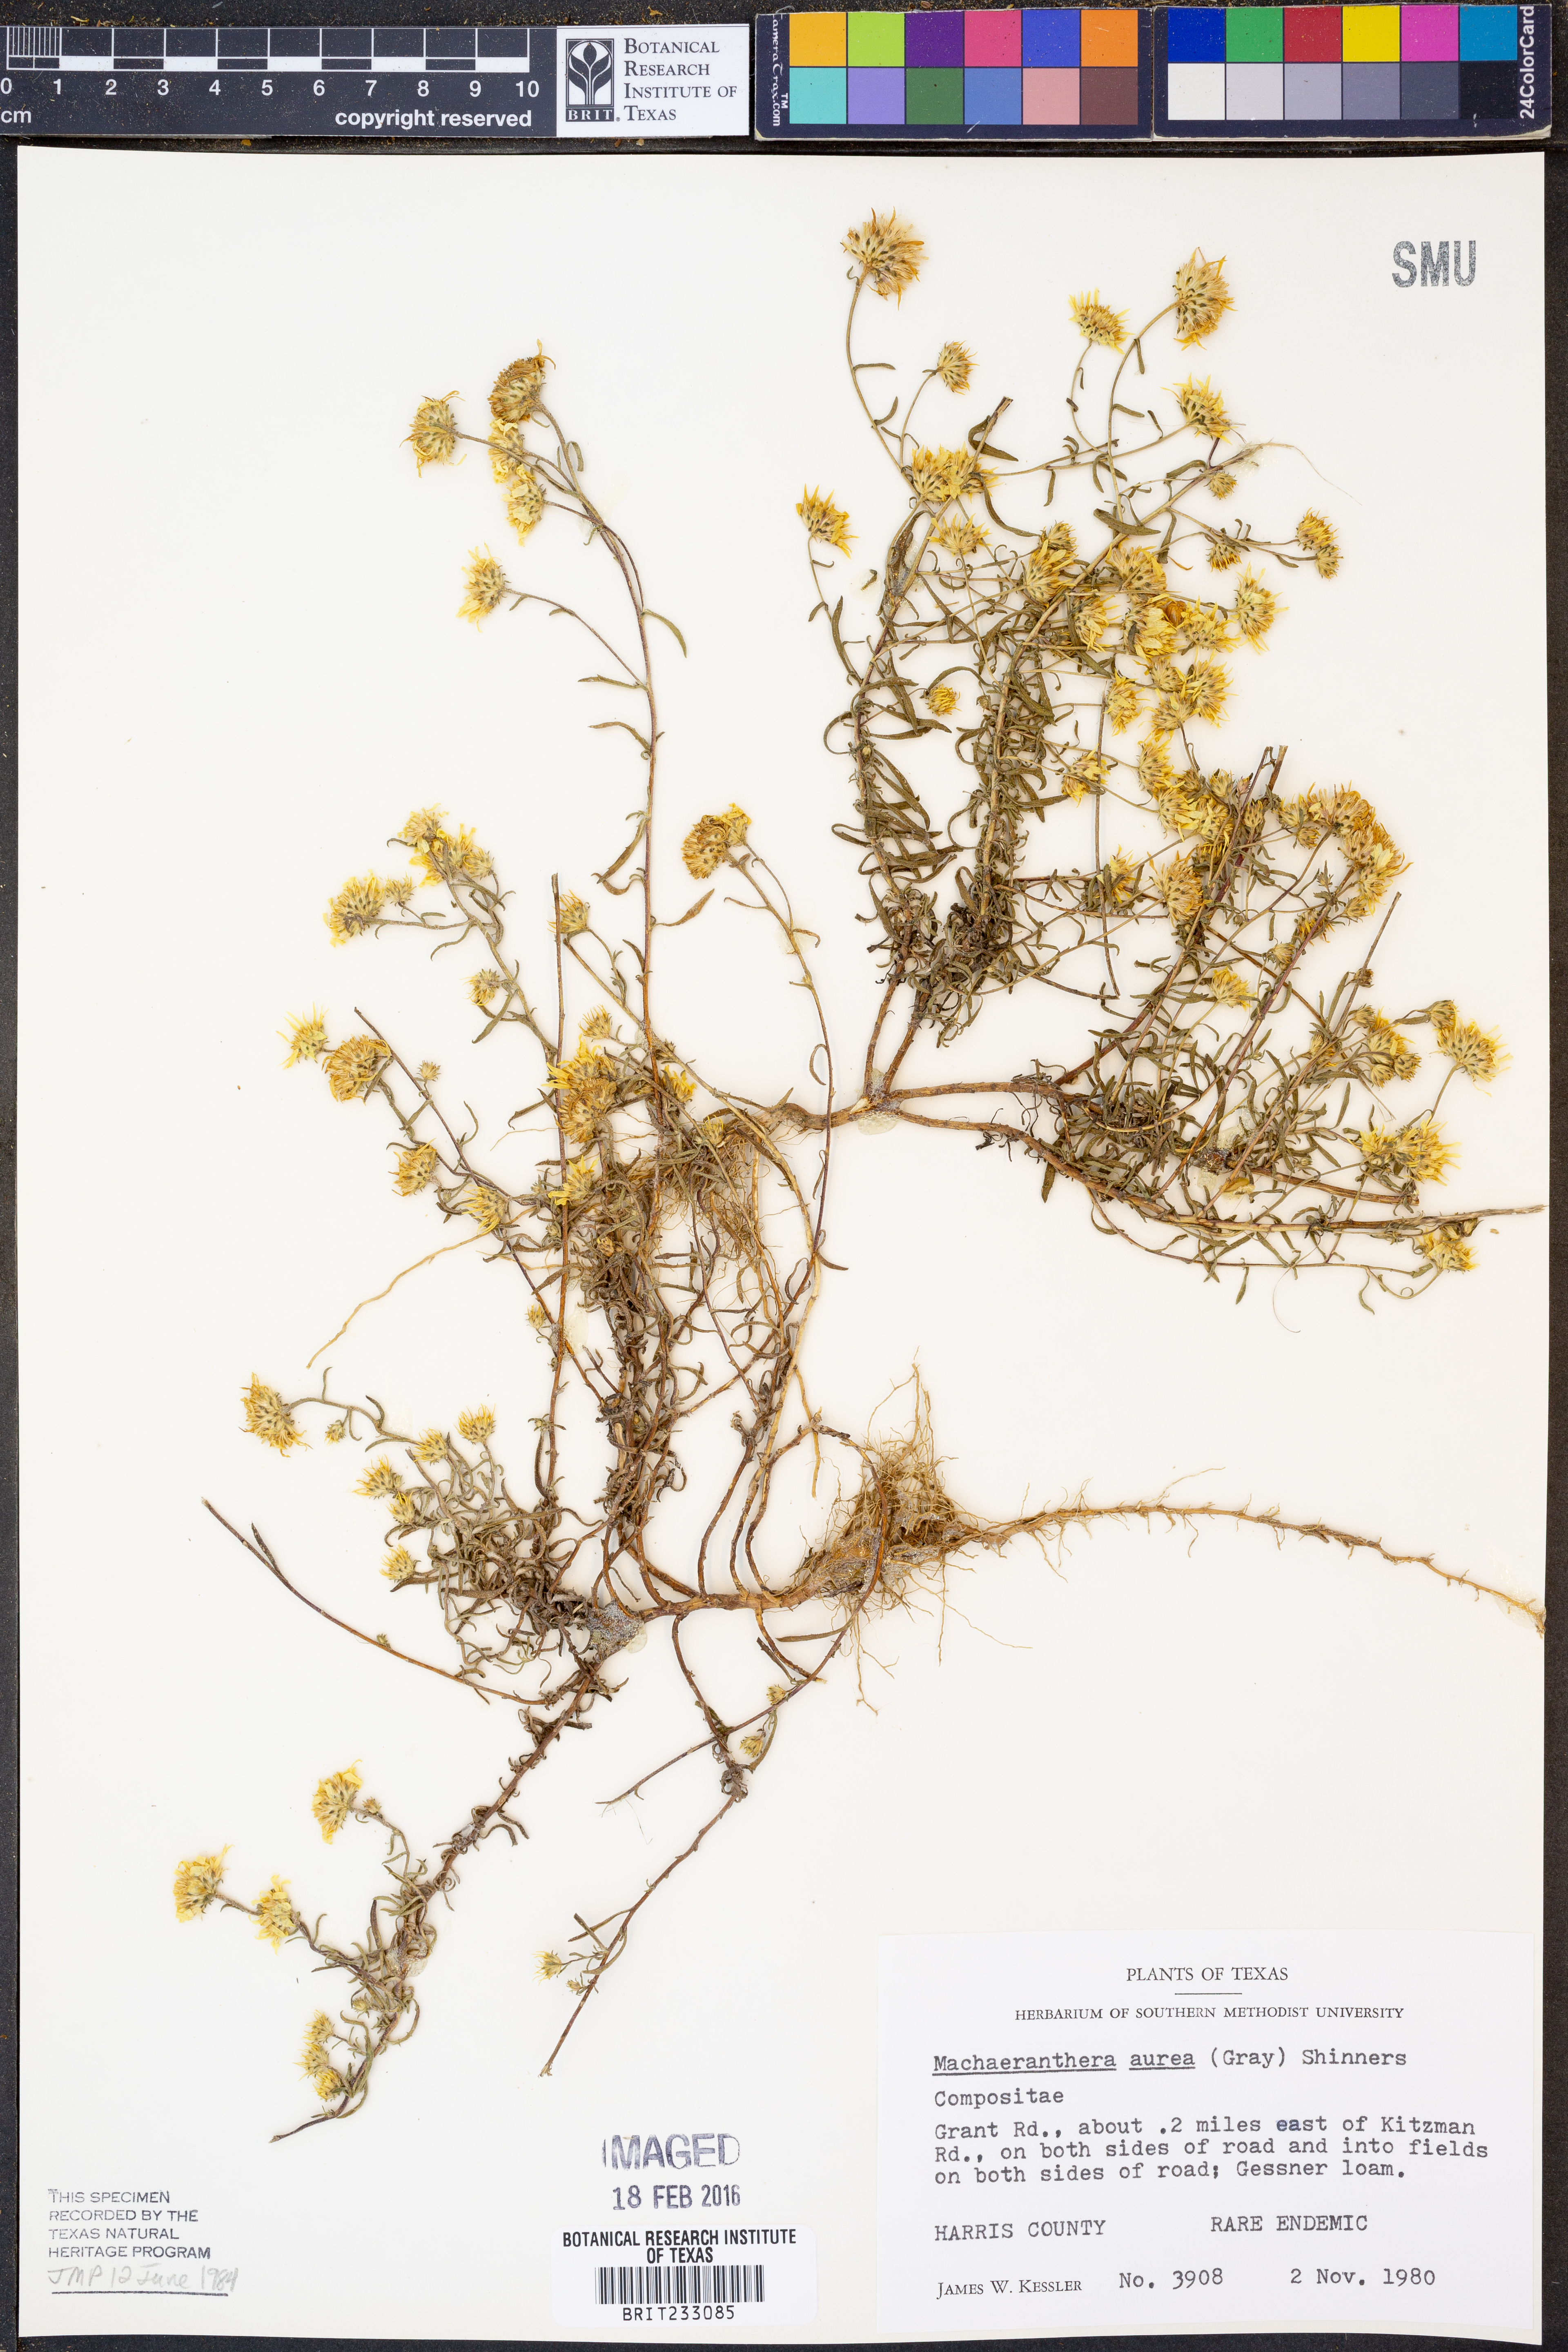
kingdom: Plantae
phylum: Tracheophyta
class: Magnoliopsida
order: Asterales
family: Asteraceae
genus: Rayjacksonia
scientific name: Rayjacksonia aurea
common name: Houston camphor daisy
